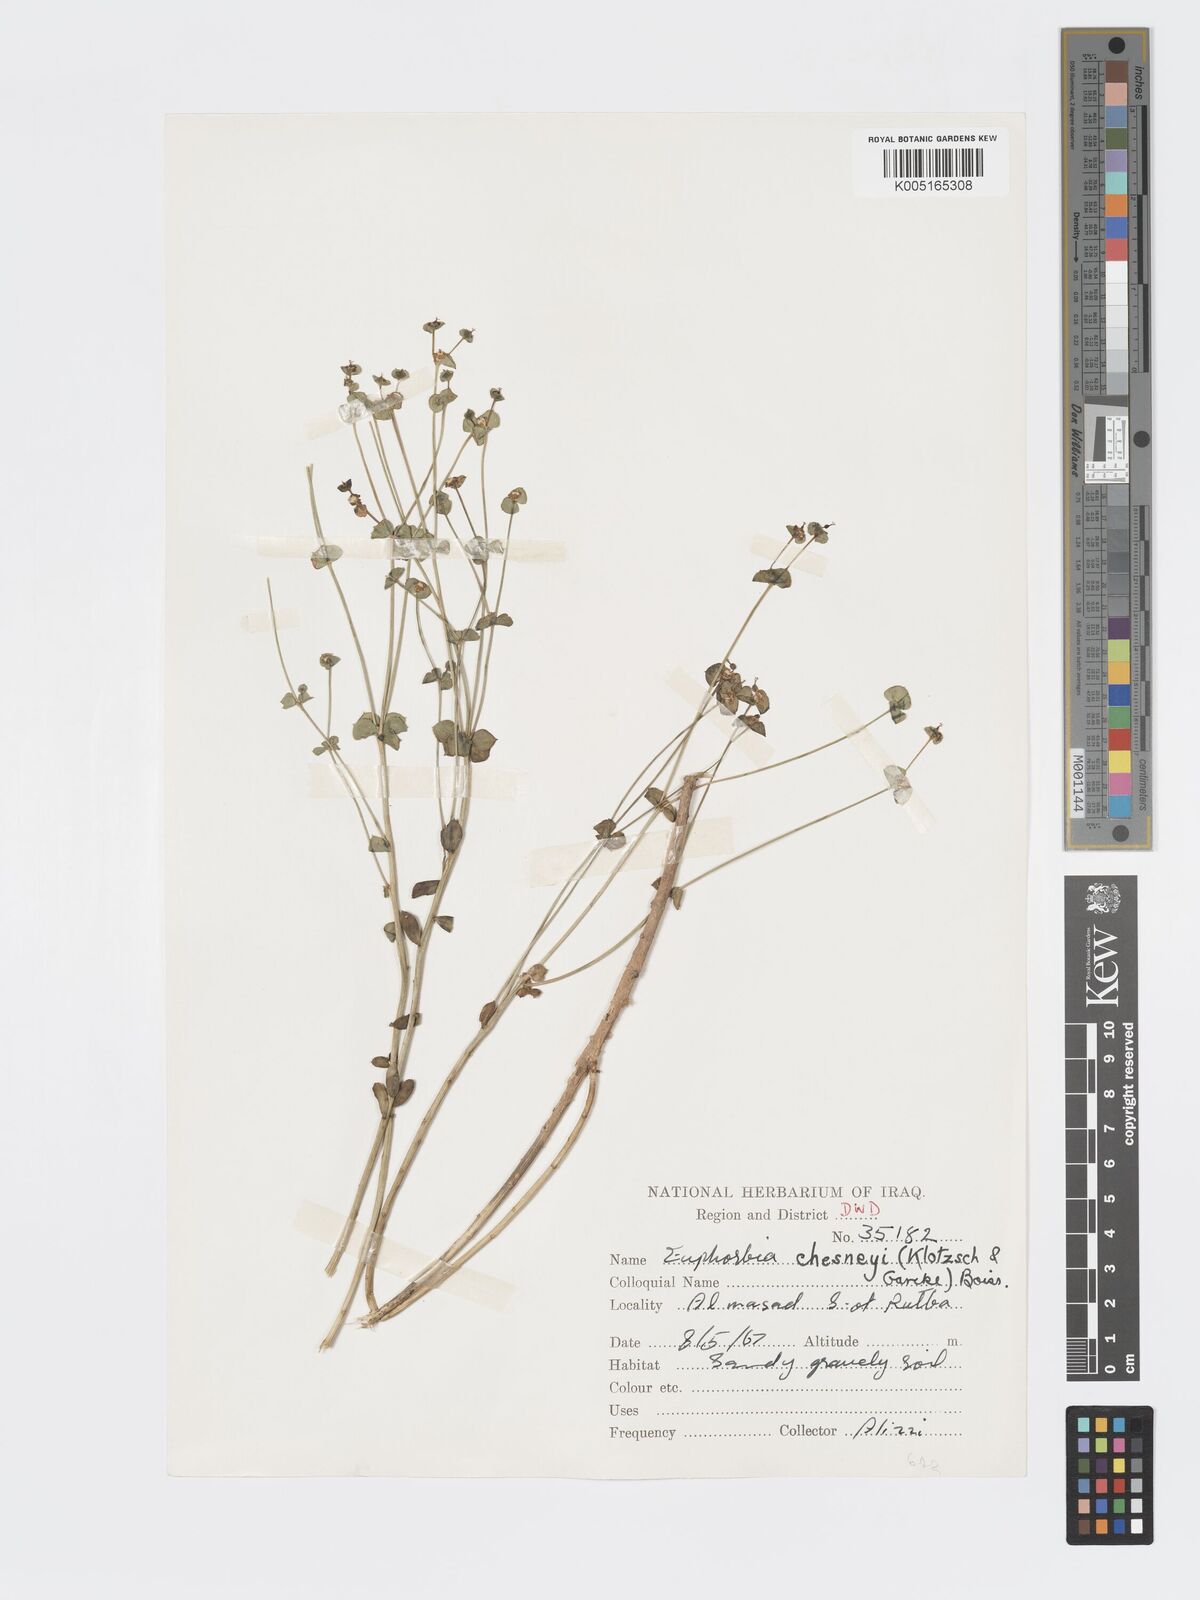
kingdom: Plantae
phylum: Tracheophyta
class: Magnoliopsida
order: Malpighiales
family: Euphorbiaceae
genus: Euphorbia
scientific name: Euphorbia cuspidata
